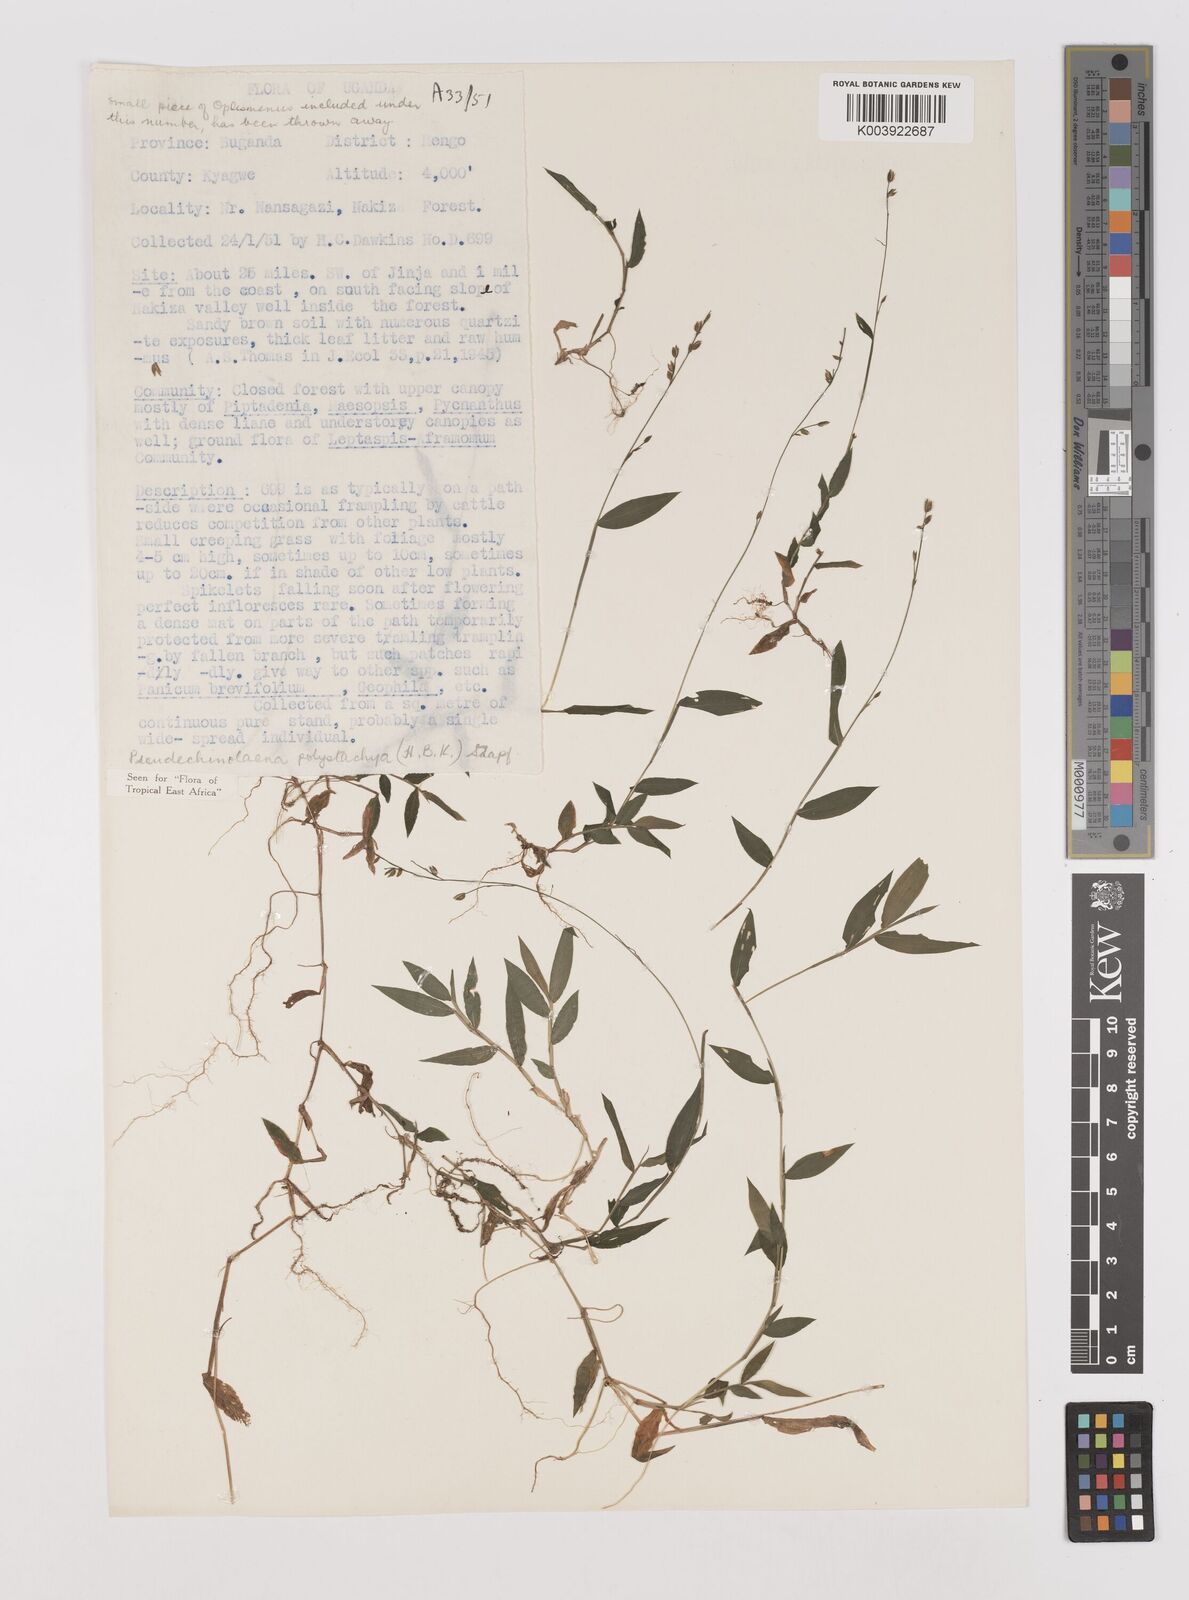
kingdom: Plantae
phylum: Tracheophyta
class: Liliopsida
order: Poales
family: Poaceae
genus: Pseudechinolaena
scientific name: Pseudechinolaena polystachya
